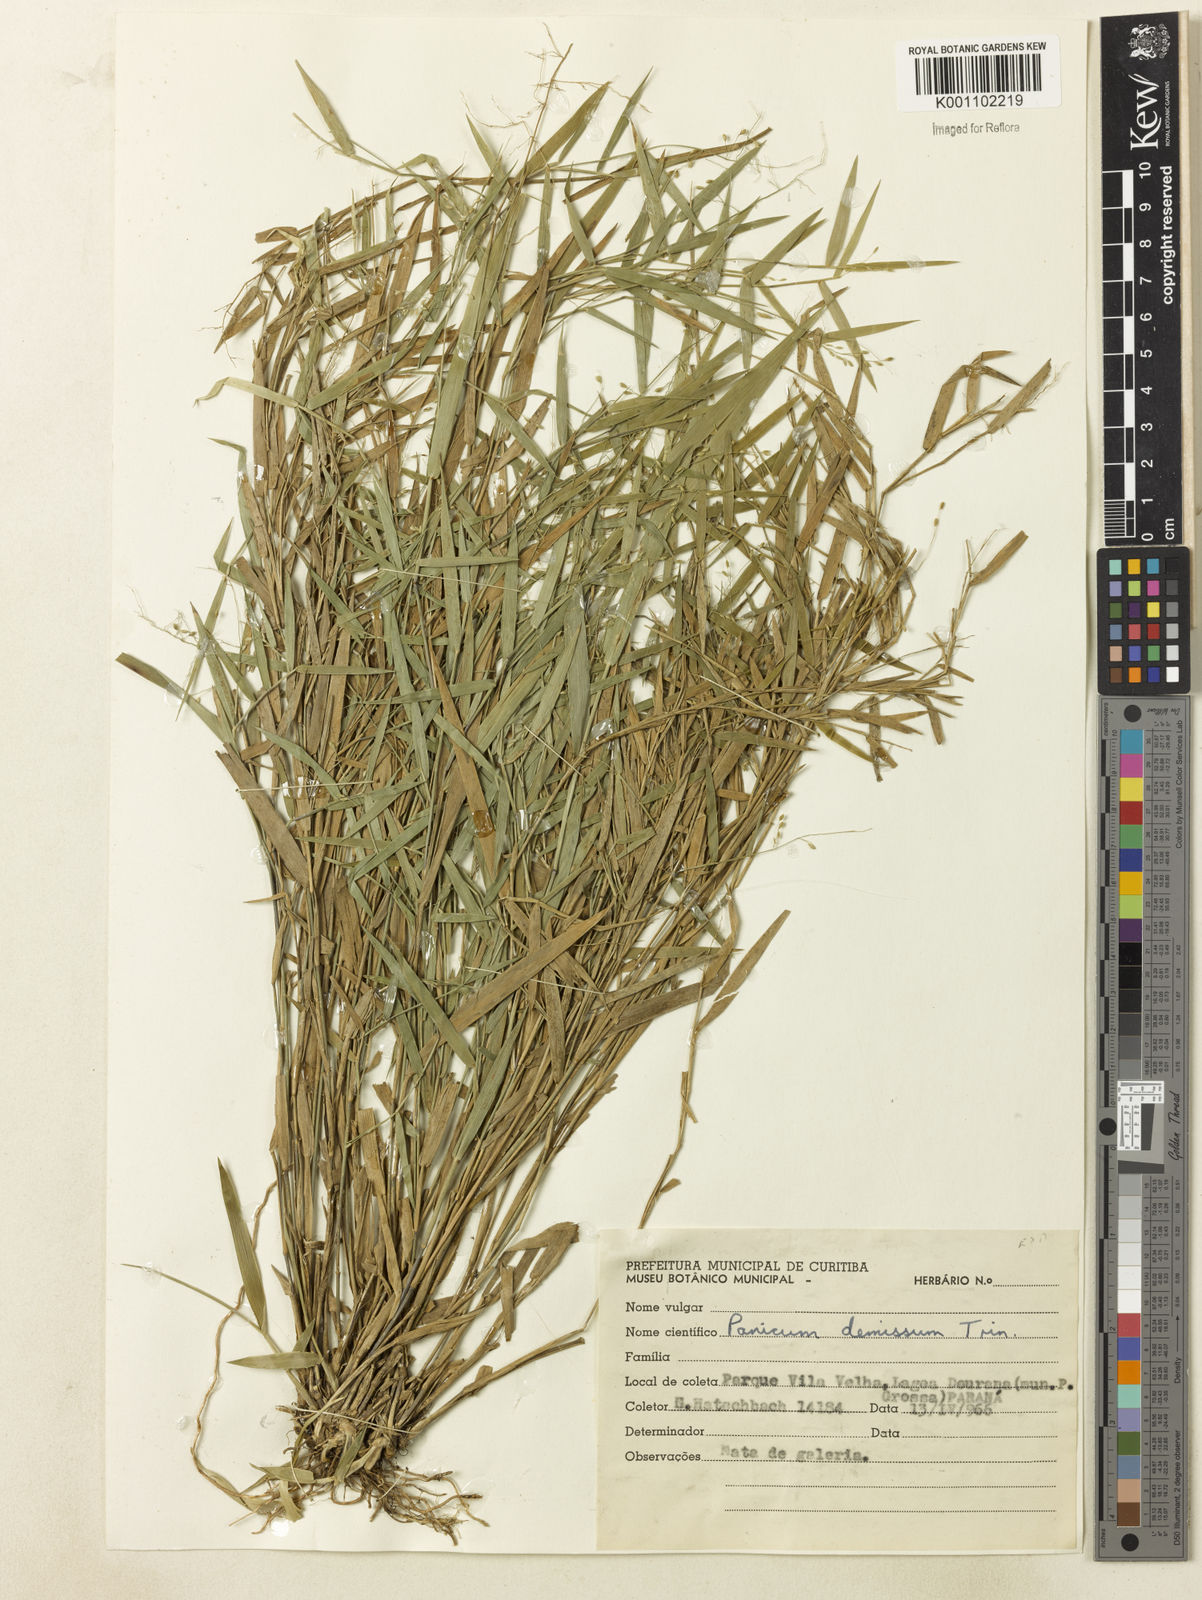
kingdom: Plantae
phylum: Tracheophyta
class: Liliopsida
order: Poales
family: Poaceae
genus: Dichanthelium
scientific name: Dichanthelium sabulorum
